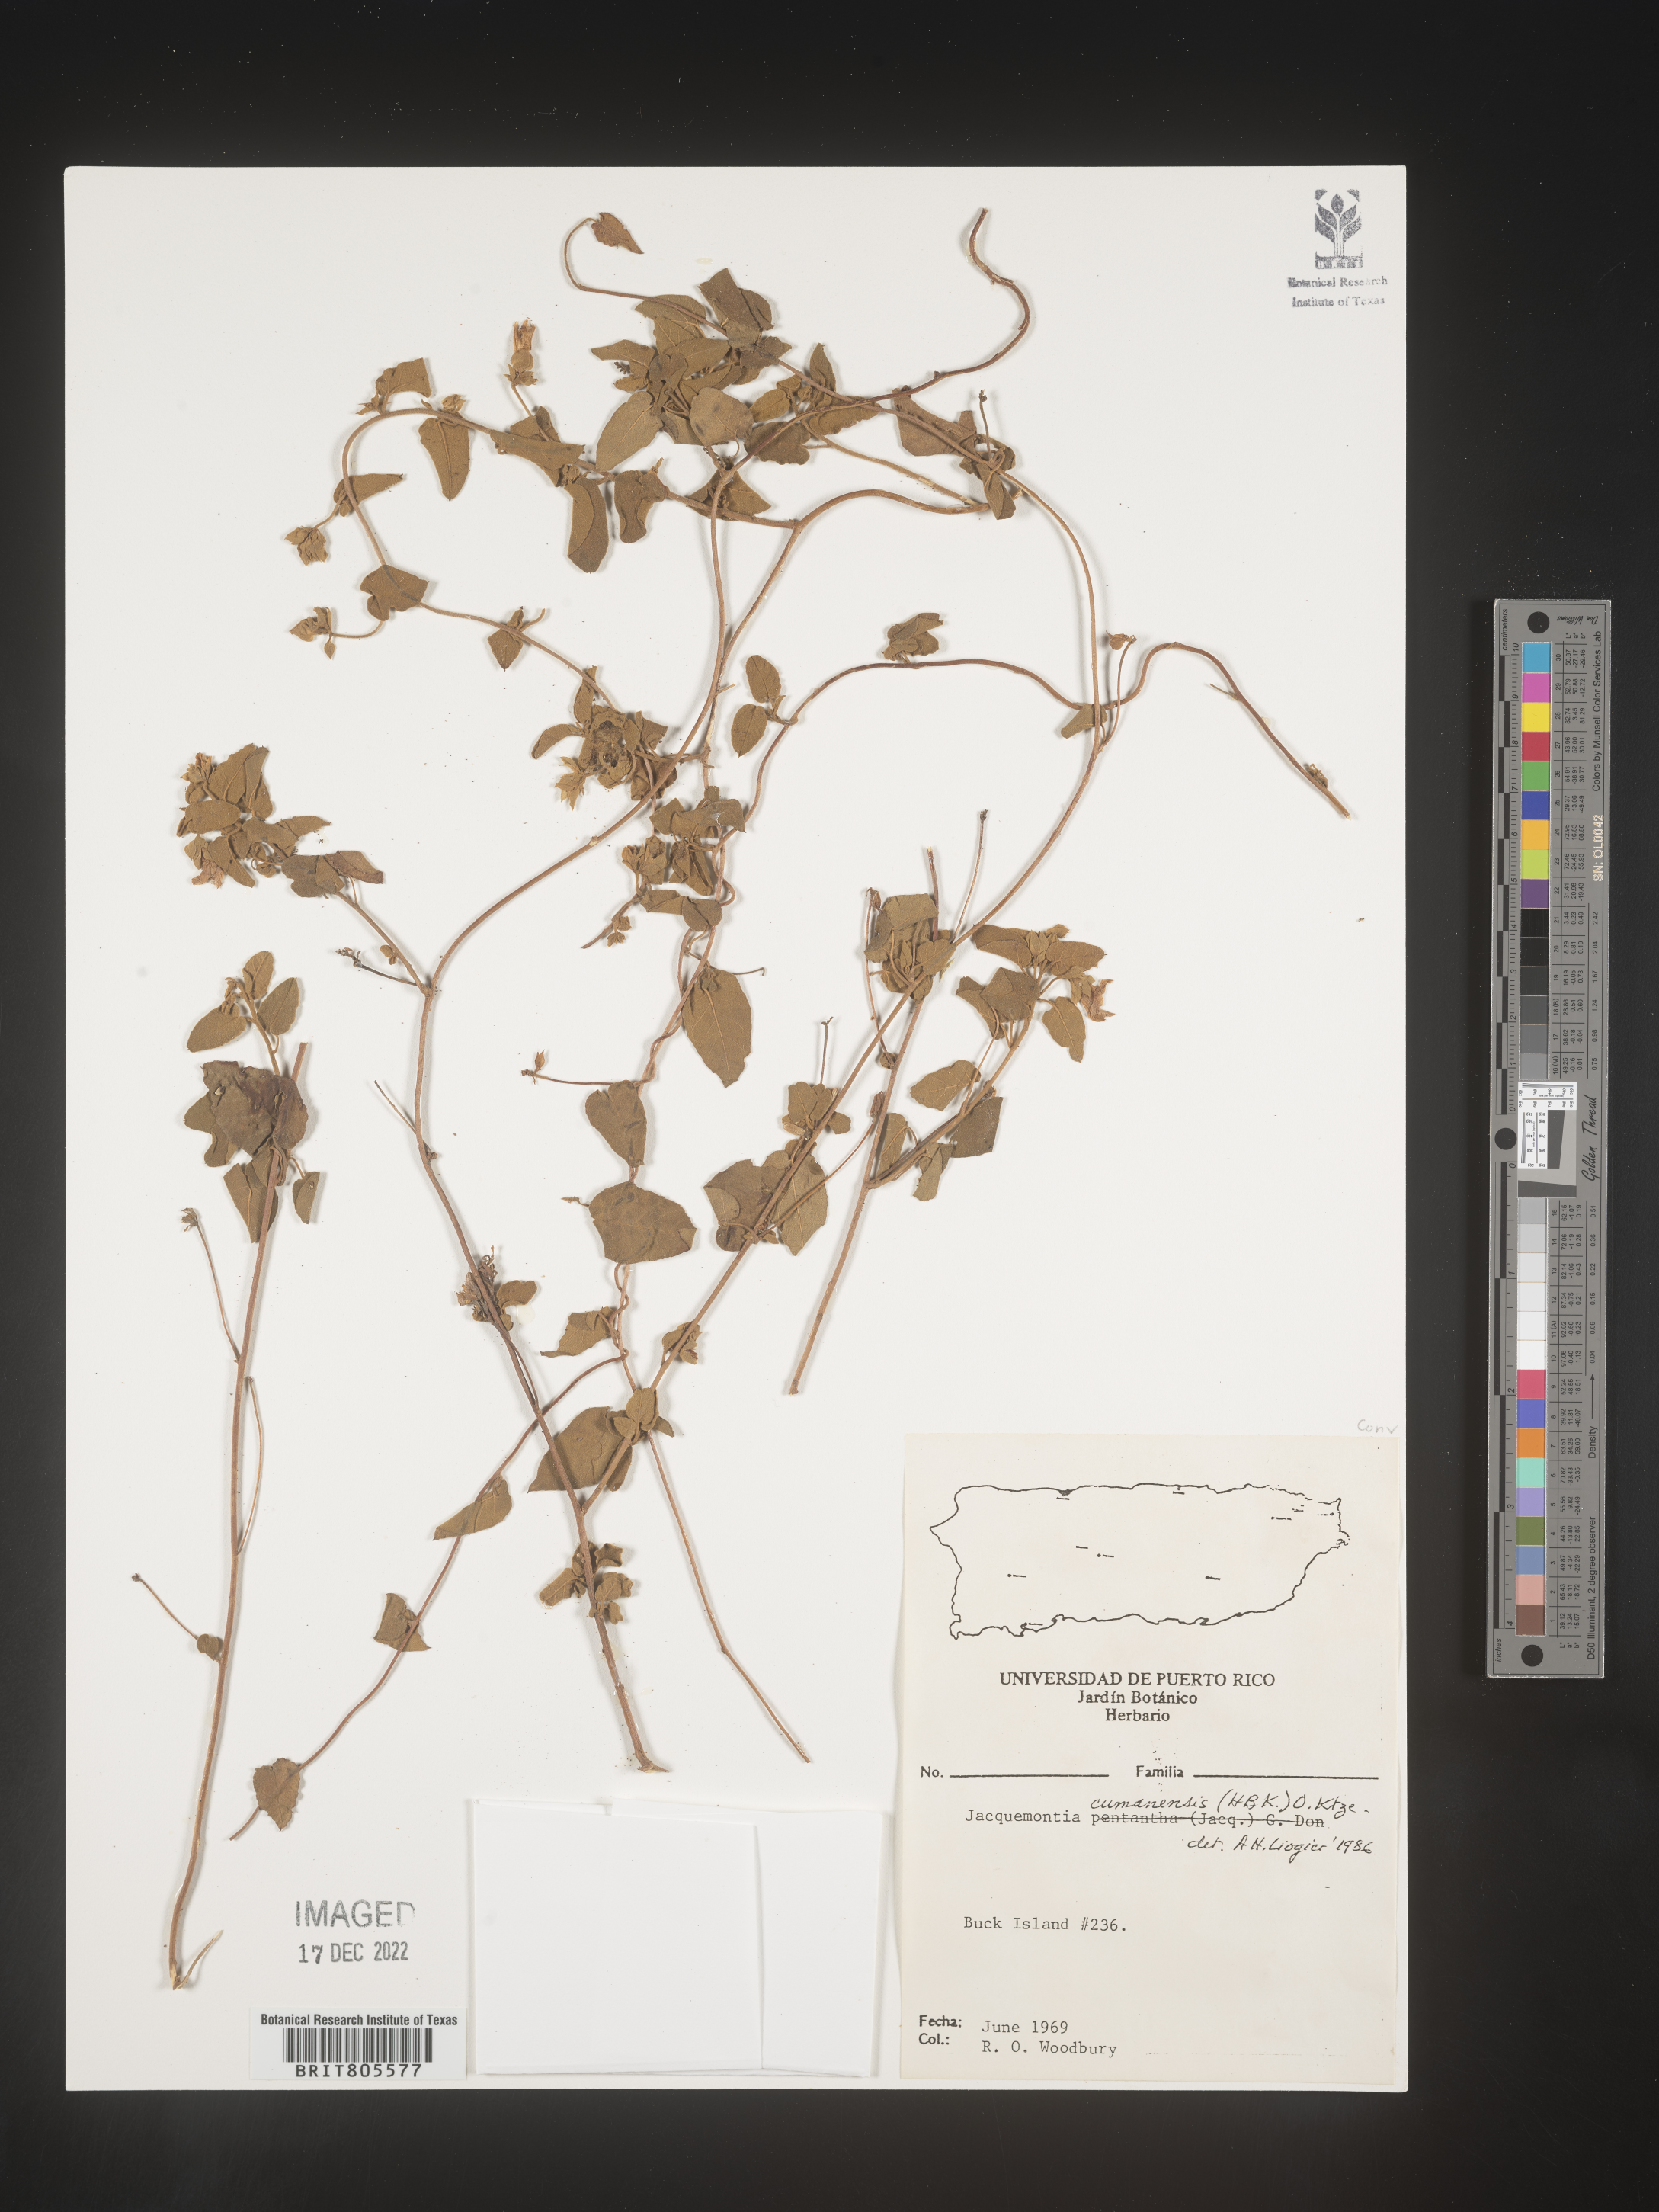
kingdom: Plantae
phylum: Tracheophyta
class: Magnoliopsida
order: Solanales
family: Convolvulaceae
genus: Jacquemontia
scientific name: Jacquemontia
